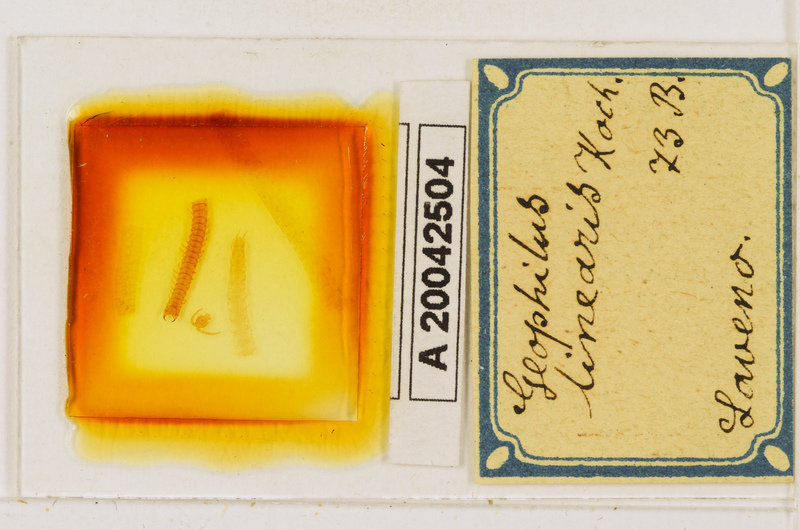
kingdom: Animalia
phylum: Arthropoda
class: Chilopoda
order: Geophilomorpha
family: Geophilidae
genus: Stenotaenia
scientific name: Stenotaenia linearis
